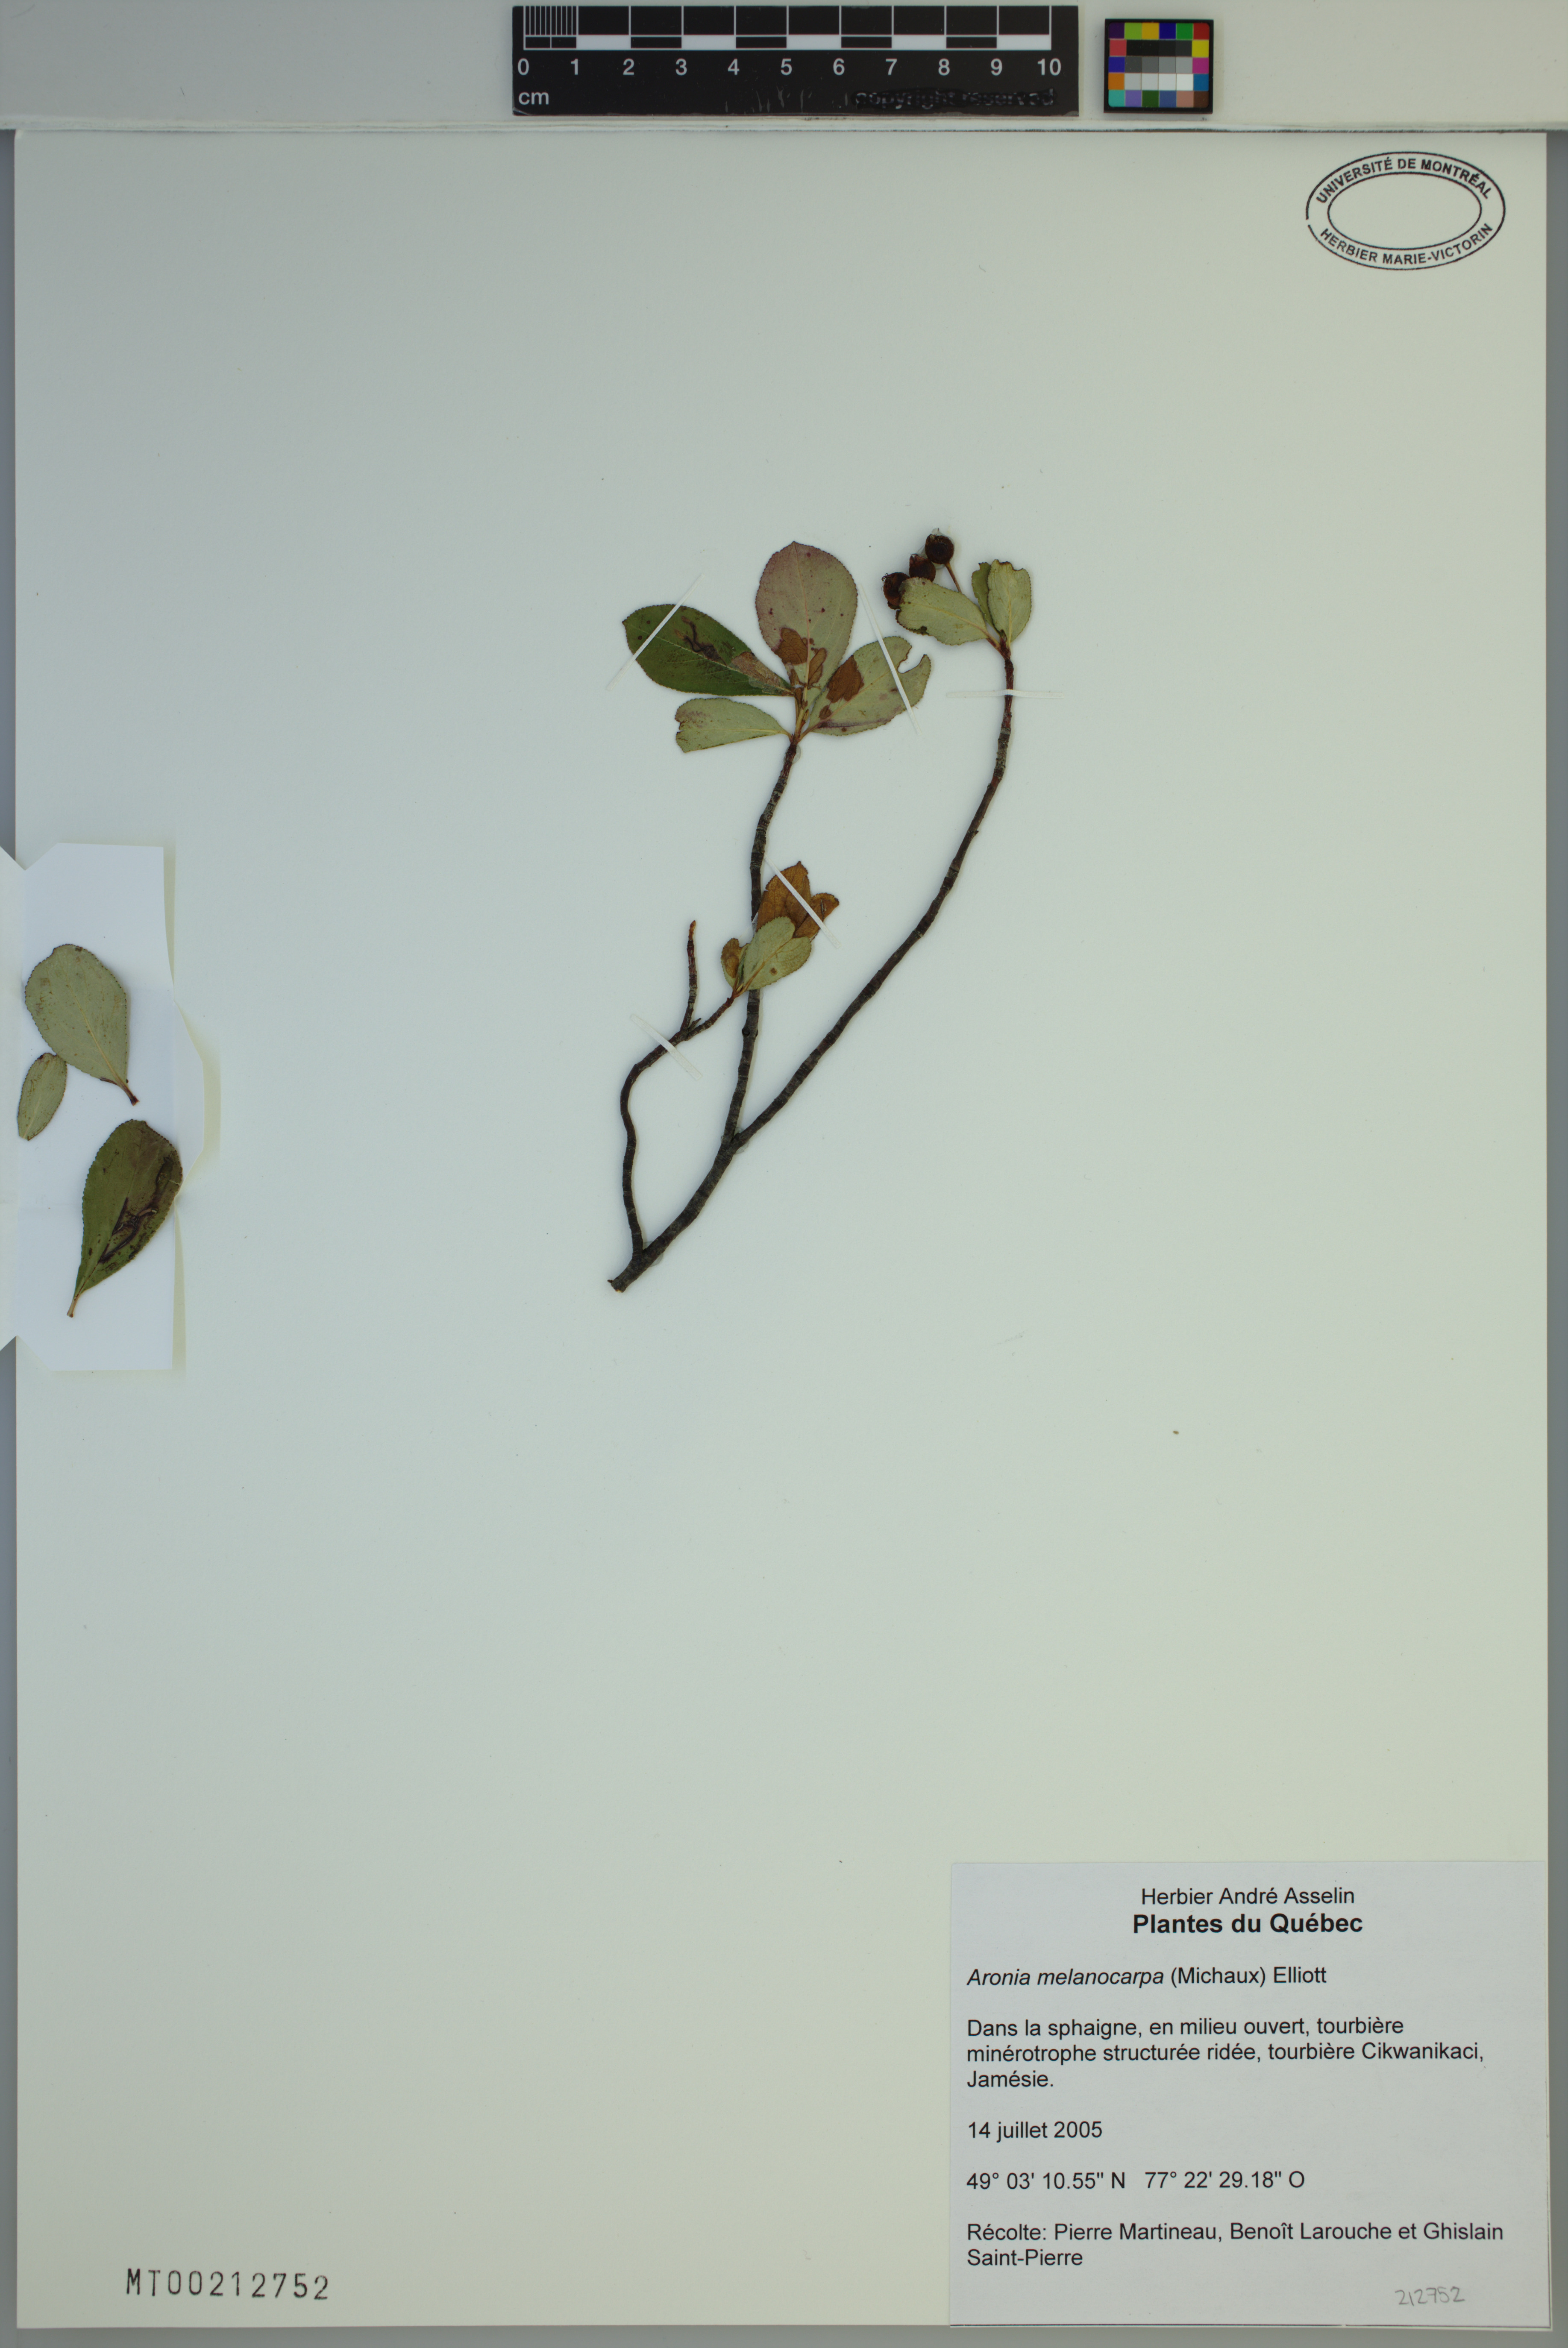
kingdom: Plantae
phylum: Tracheophyta
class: Magnoliopsida
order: Rosales
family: Rosaceae
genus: Aronia
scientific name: Aronia melanocarpa
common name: Black chokeberry
